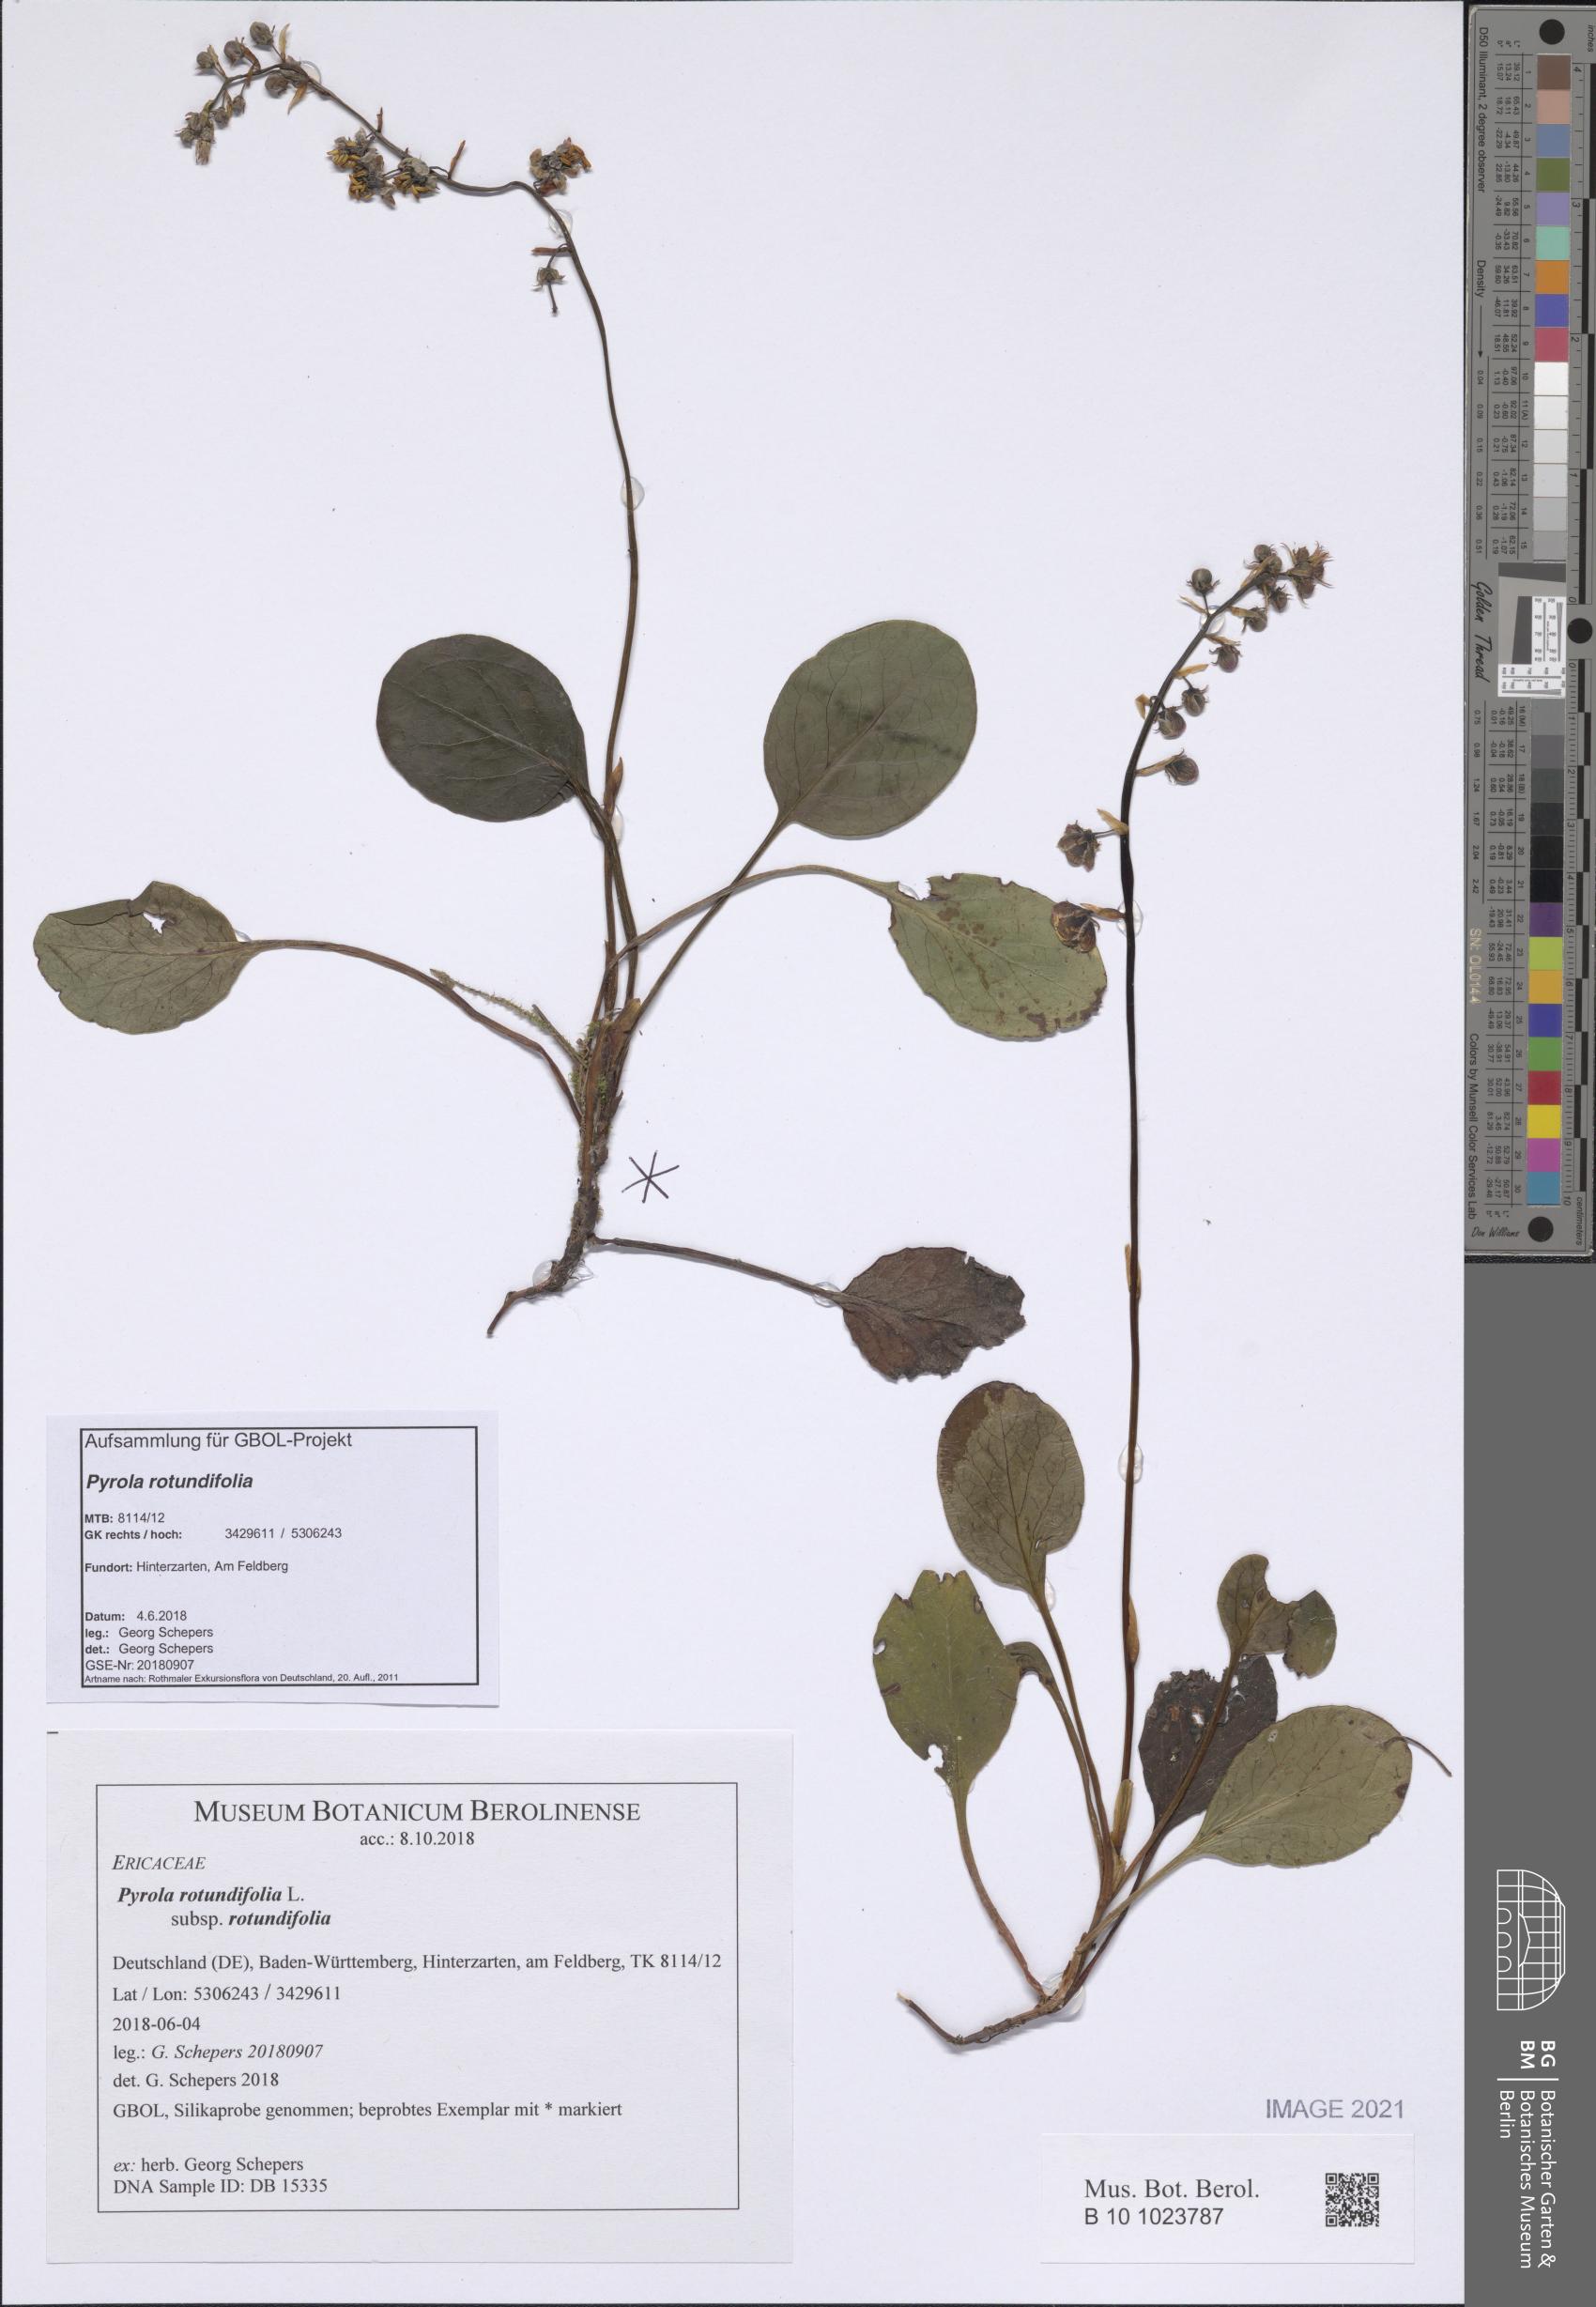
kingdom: Plantae
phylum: Tracheophyta
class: Magnoliopsida
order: Ericales
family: Ericaceae
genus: Pyrola
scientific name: Pyrola rotundifolia
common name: Round-leaved wintergreen
